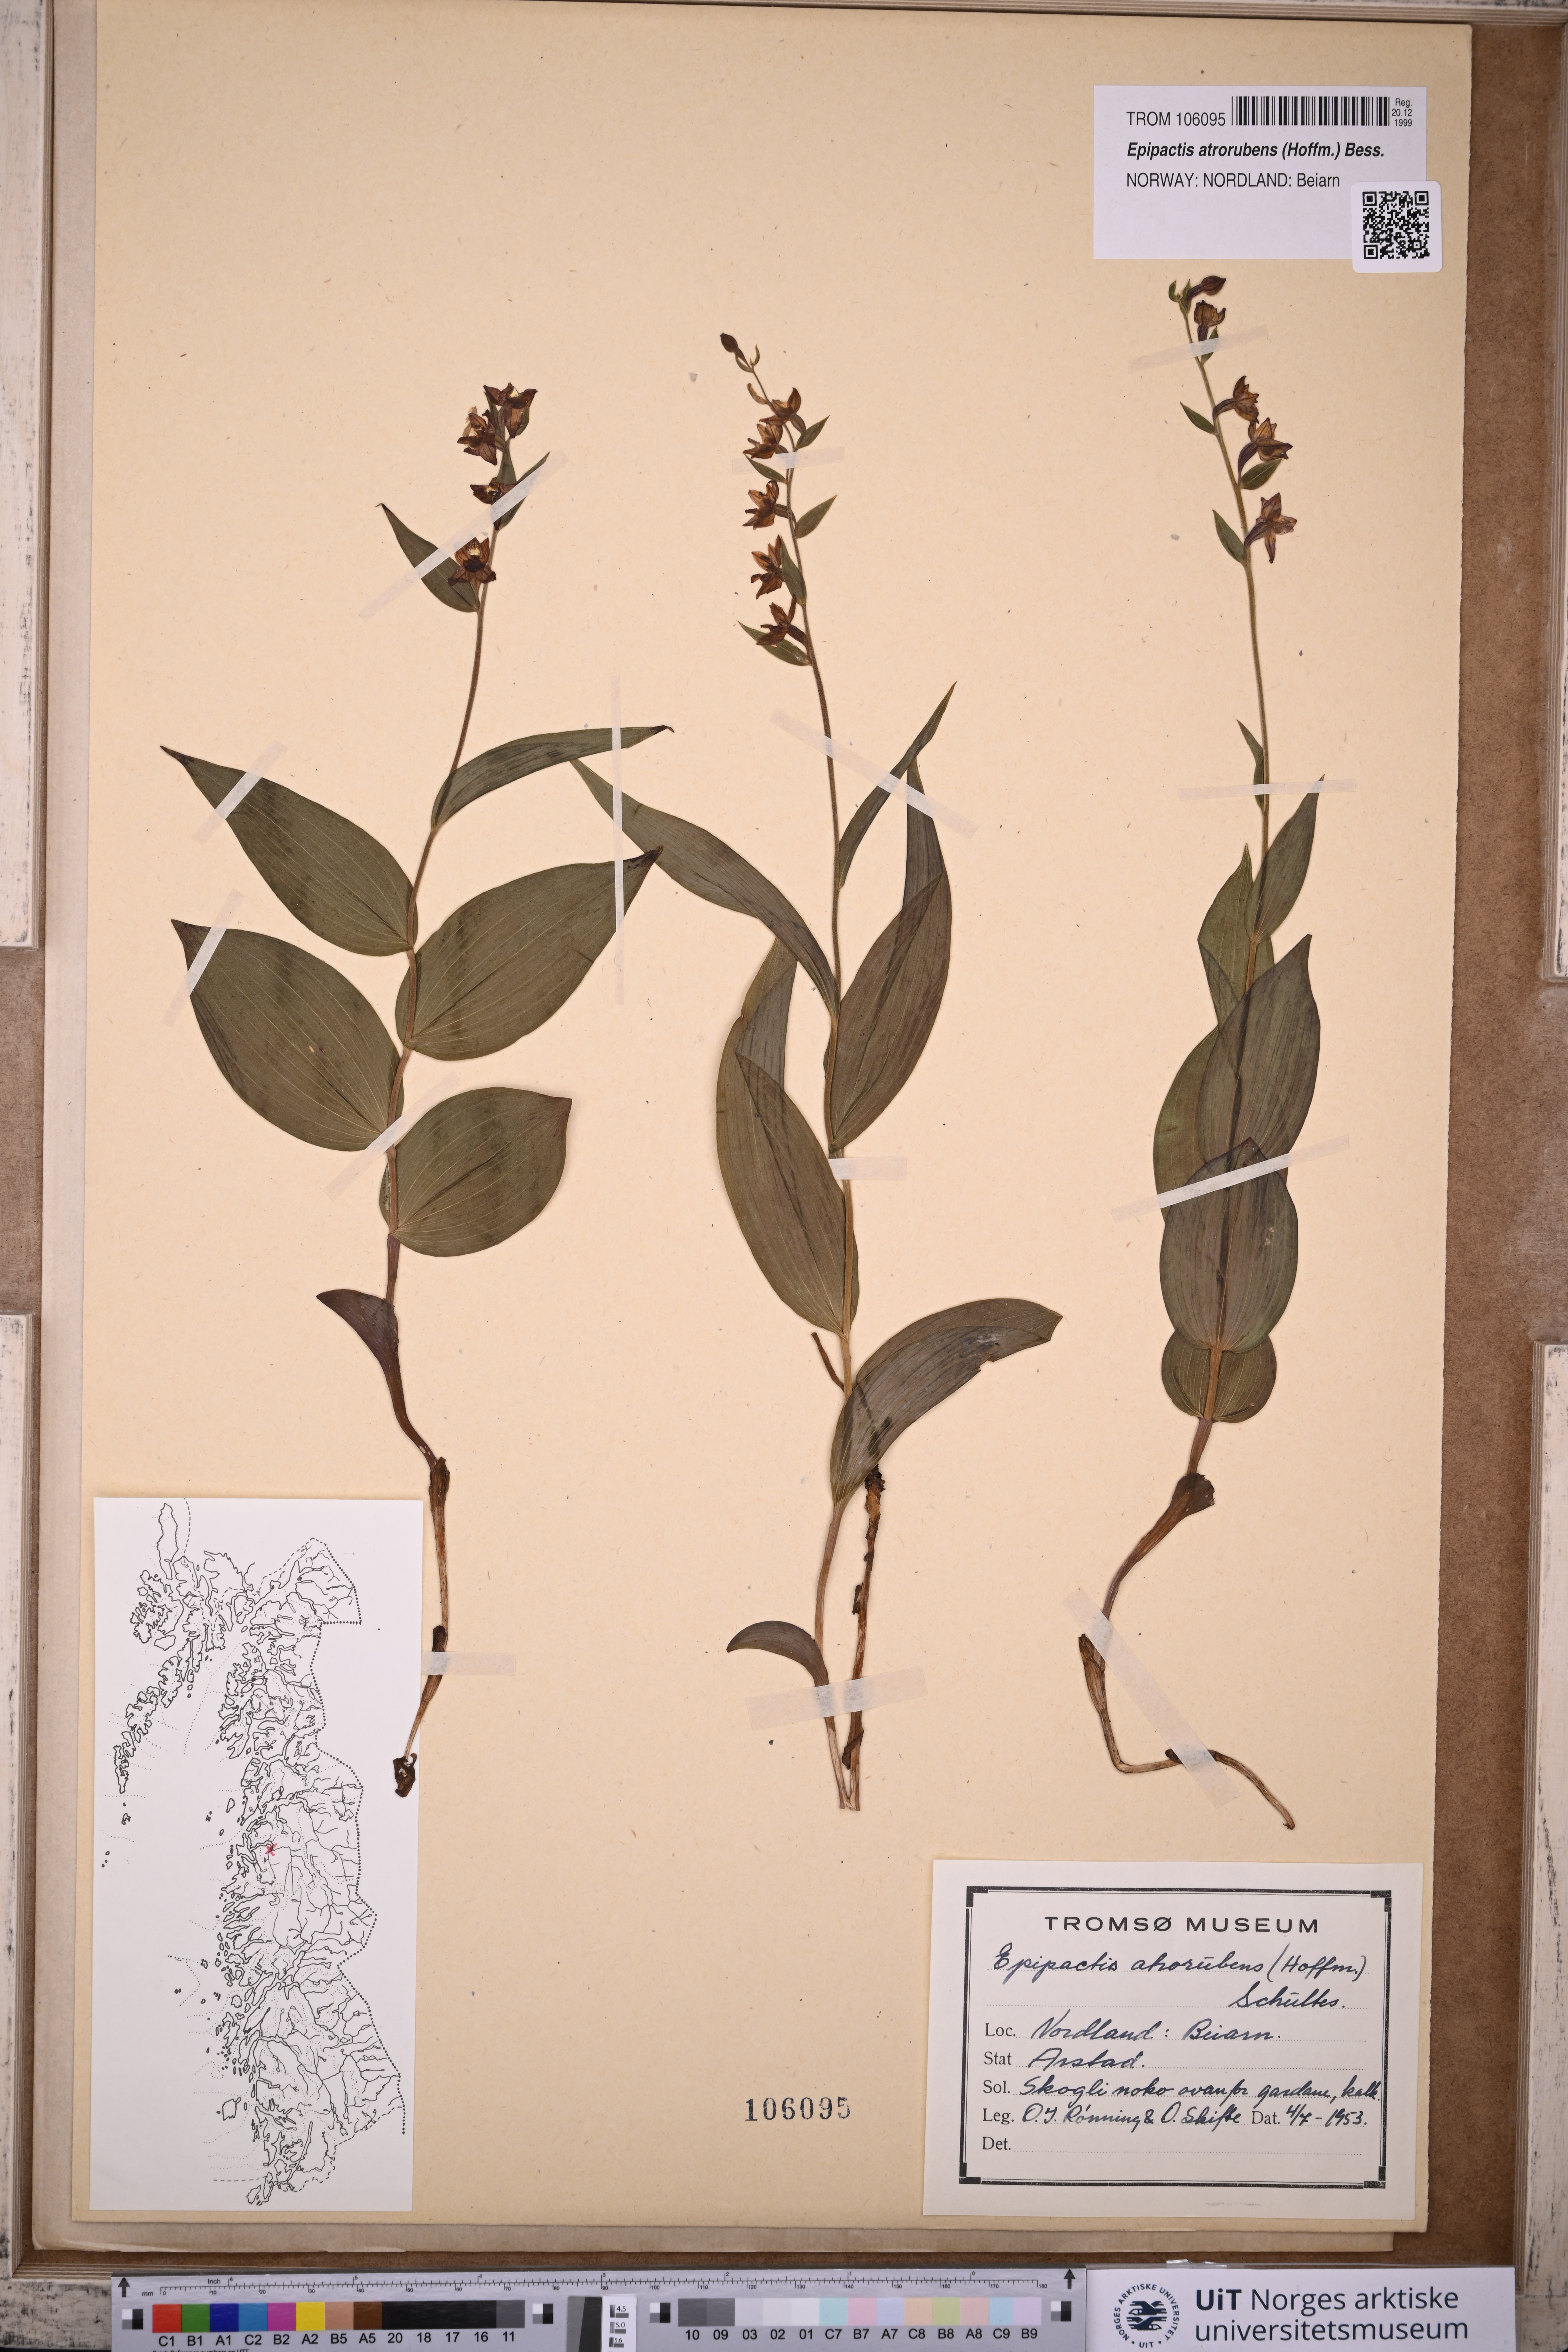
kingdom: Plantae
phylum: Tracheophyta
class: Liliopsida
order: Asparagales
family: Orchidaceae
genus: Epipactis
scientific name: Epipactis atrorubens
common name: Dark-red helleborine
